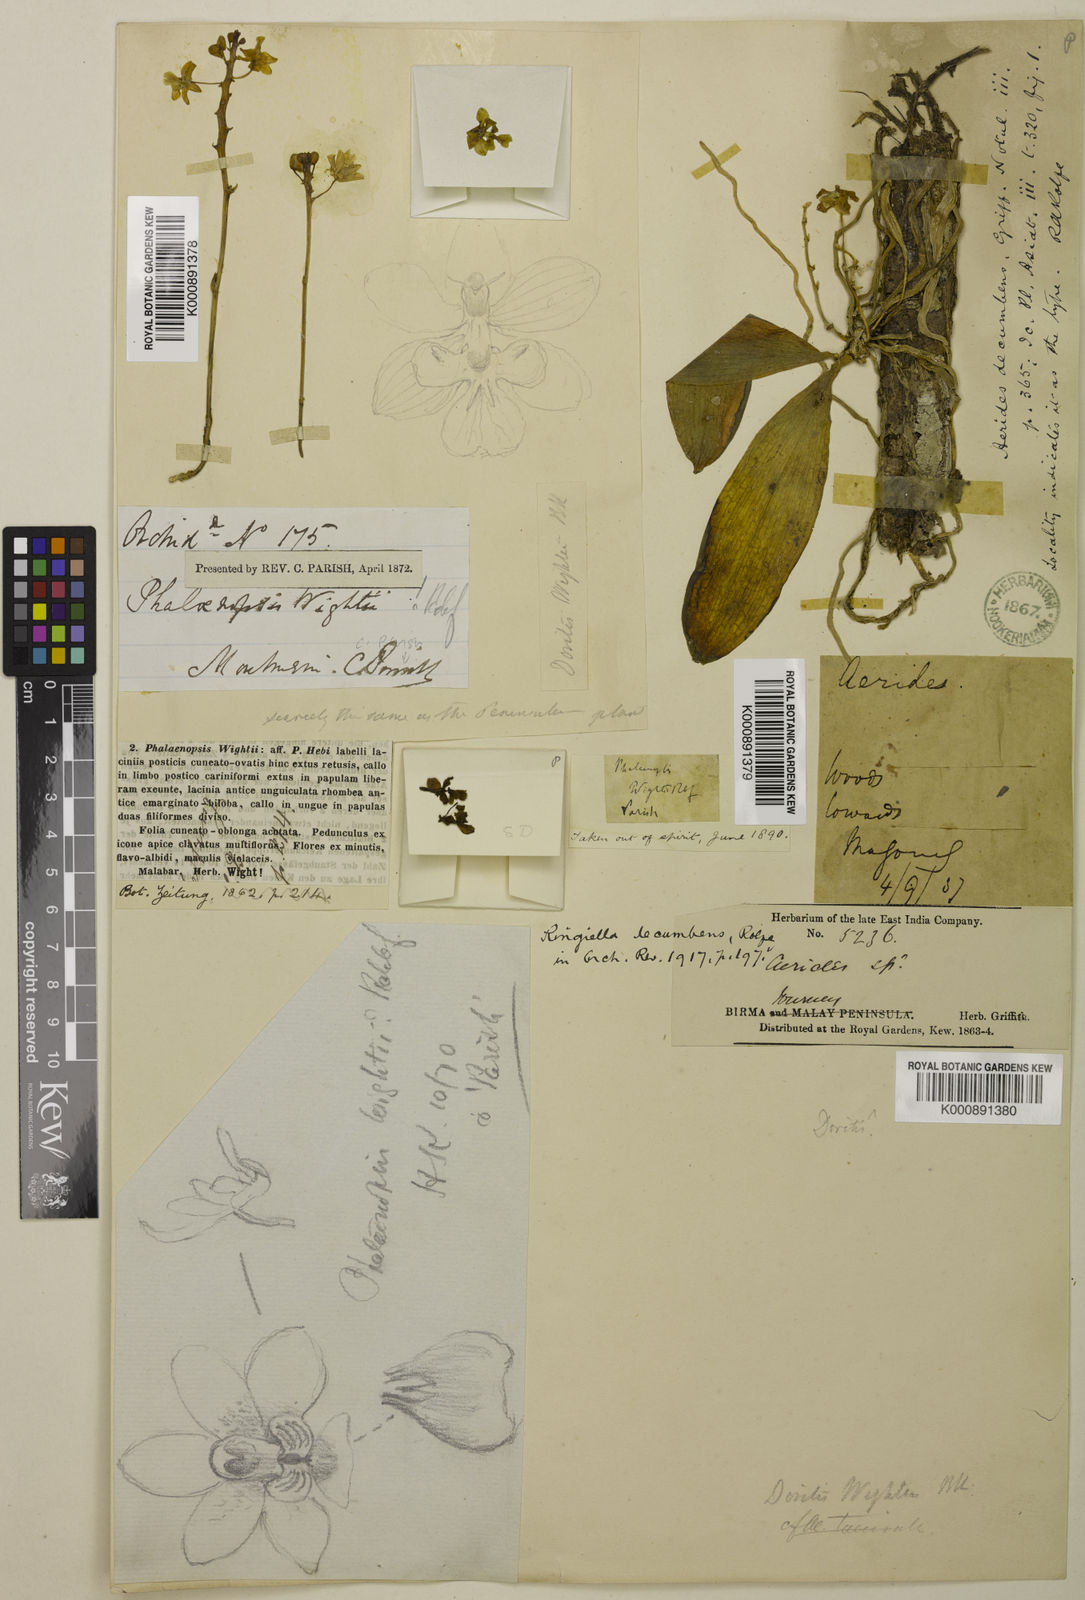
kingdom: Plantae
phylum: Tracheophyta
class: Liliopsida
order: Asparagales
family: Orchidaceae
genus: Phalaenopsis
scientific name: Phalaenopsis parishii
